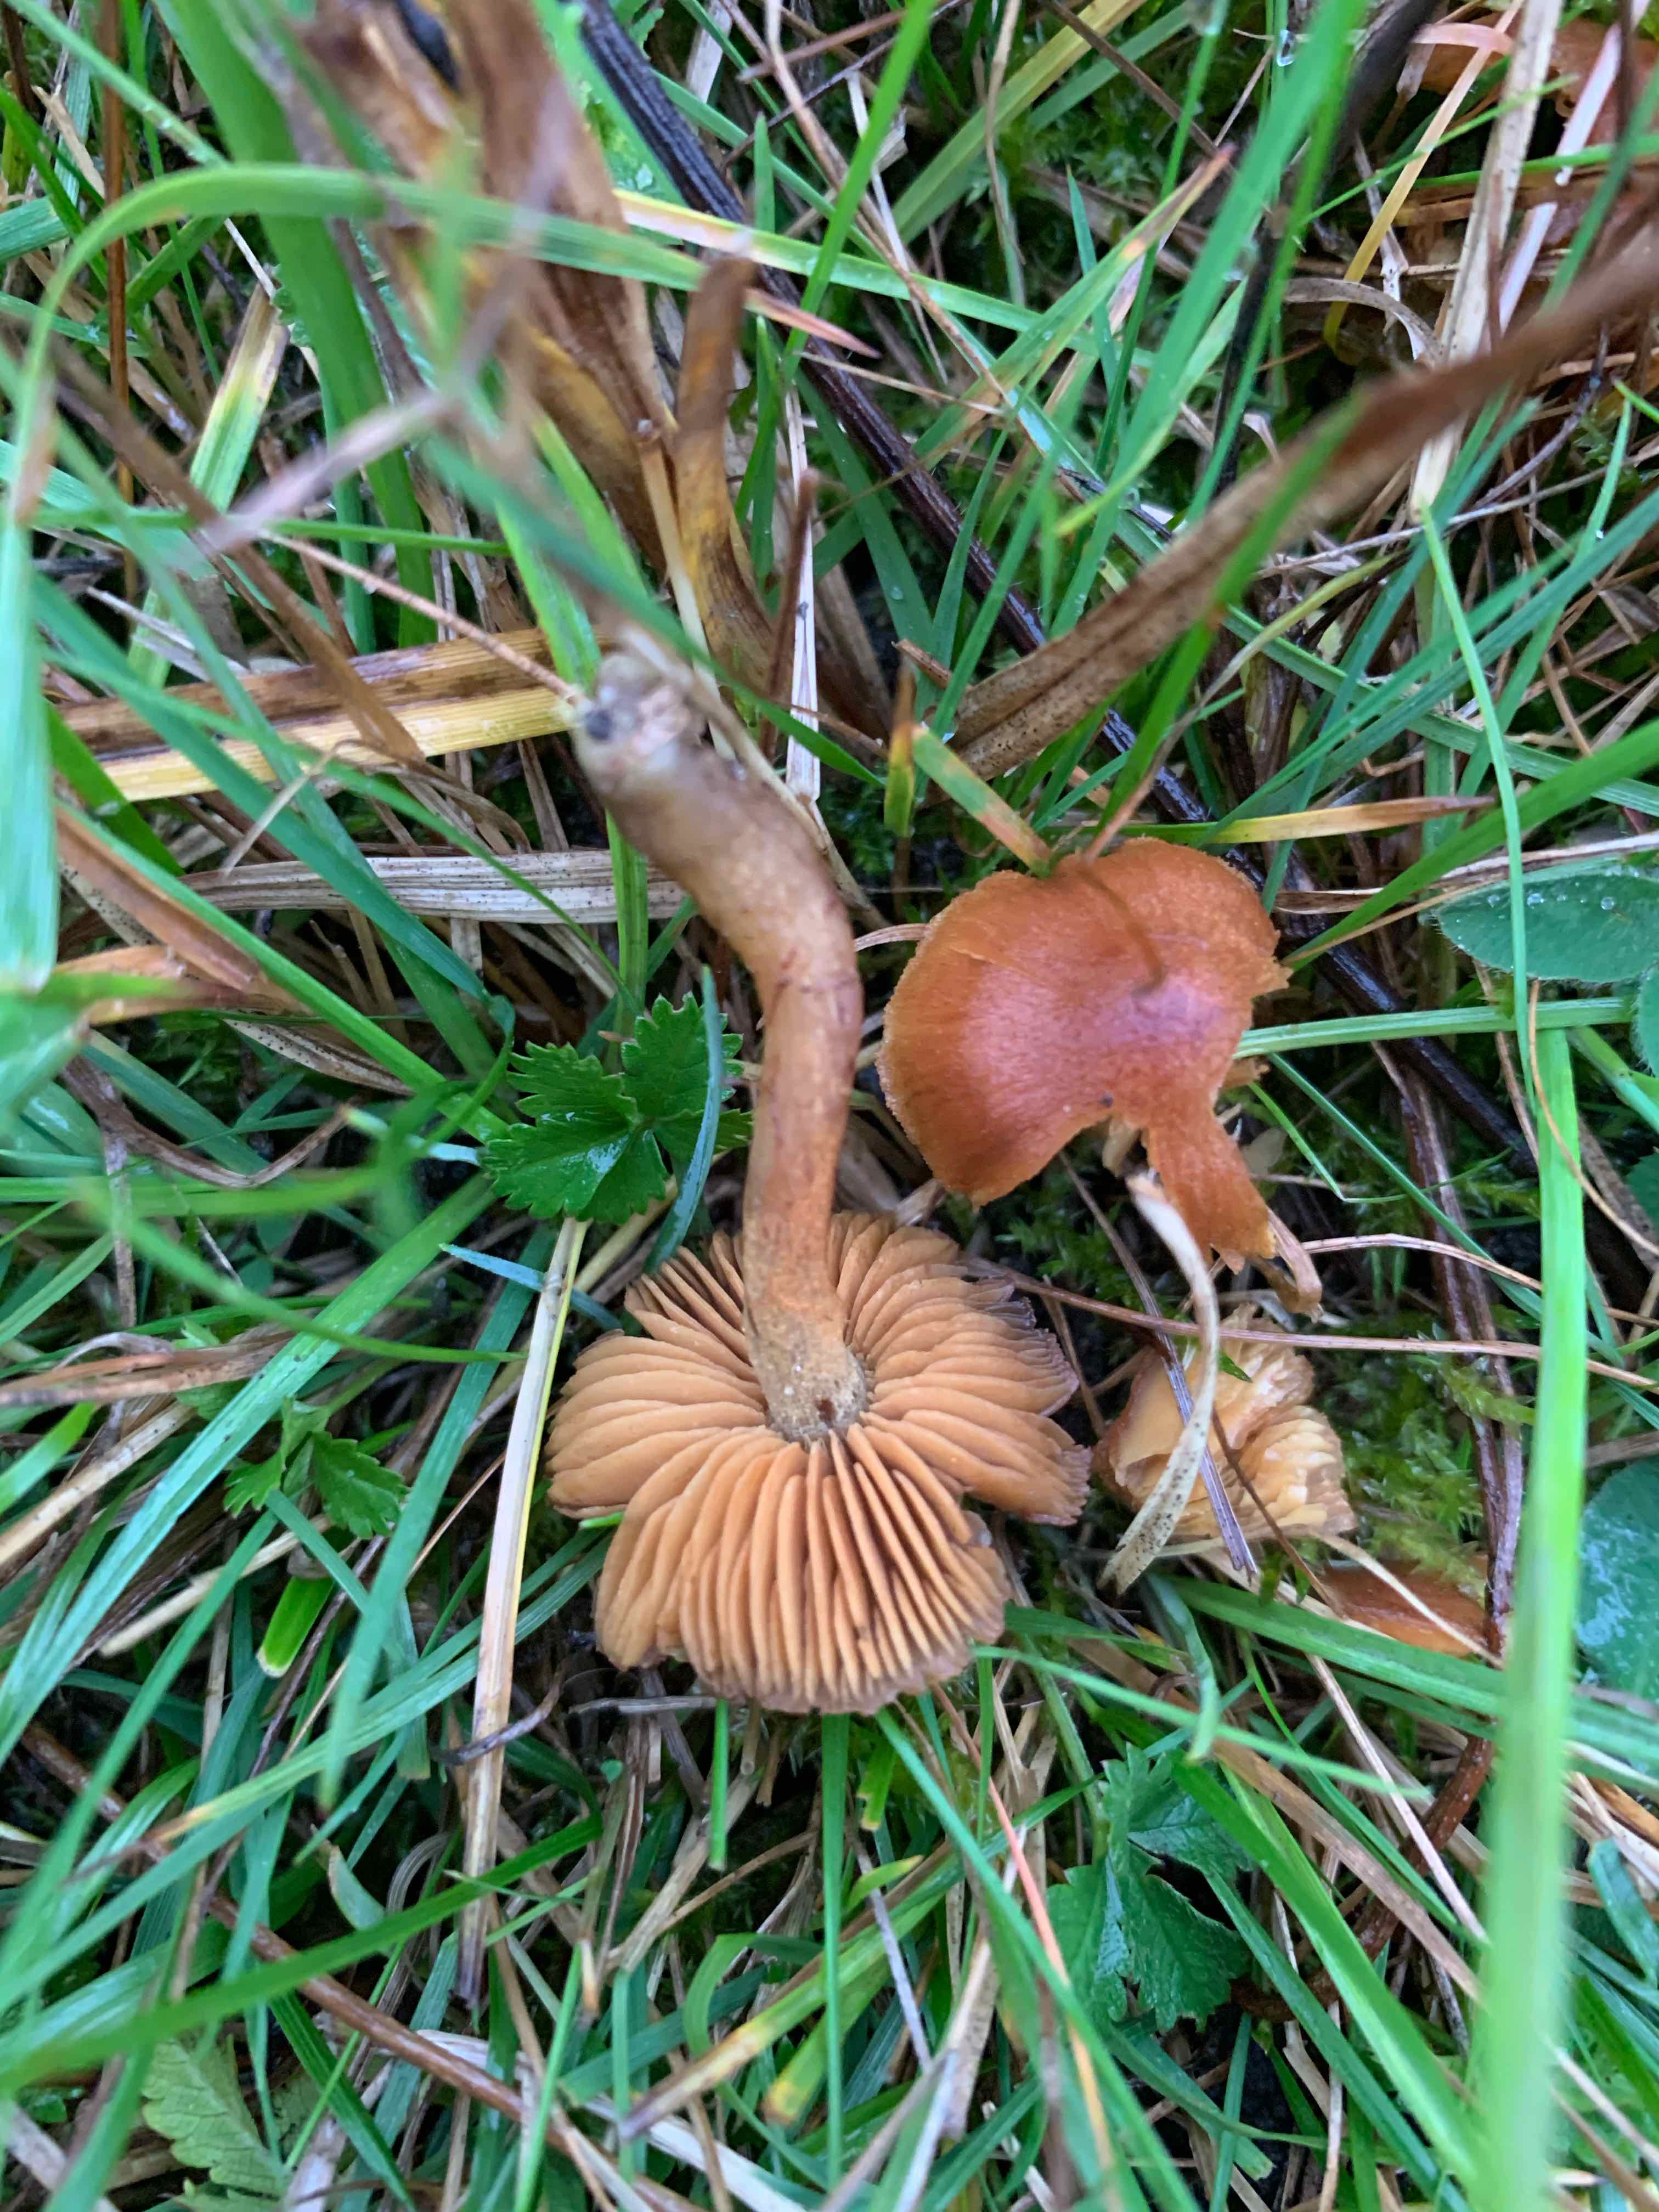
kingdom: Fungi
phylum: Basidiomycota
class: Agaricomycetes
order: Agaricales
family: Cortinariaceae
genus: Cortinarius
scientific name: Cortinarius
